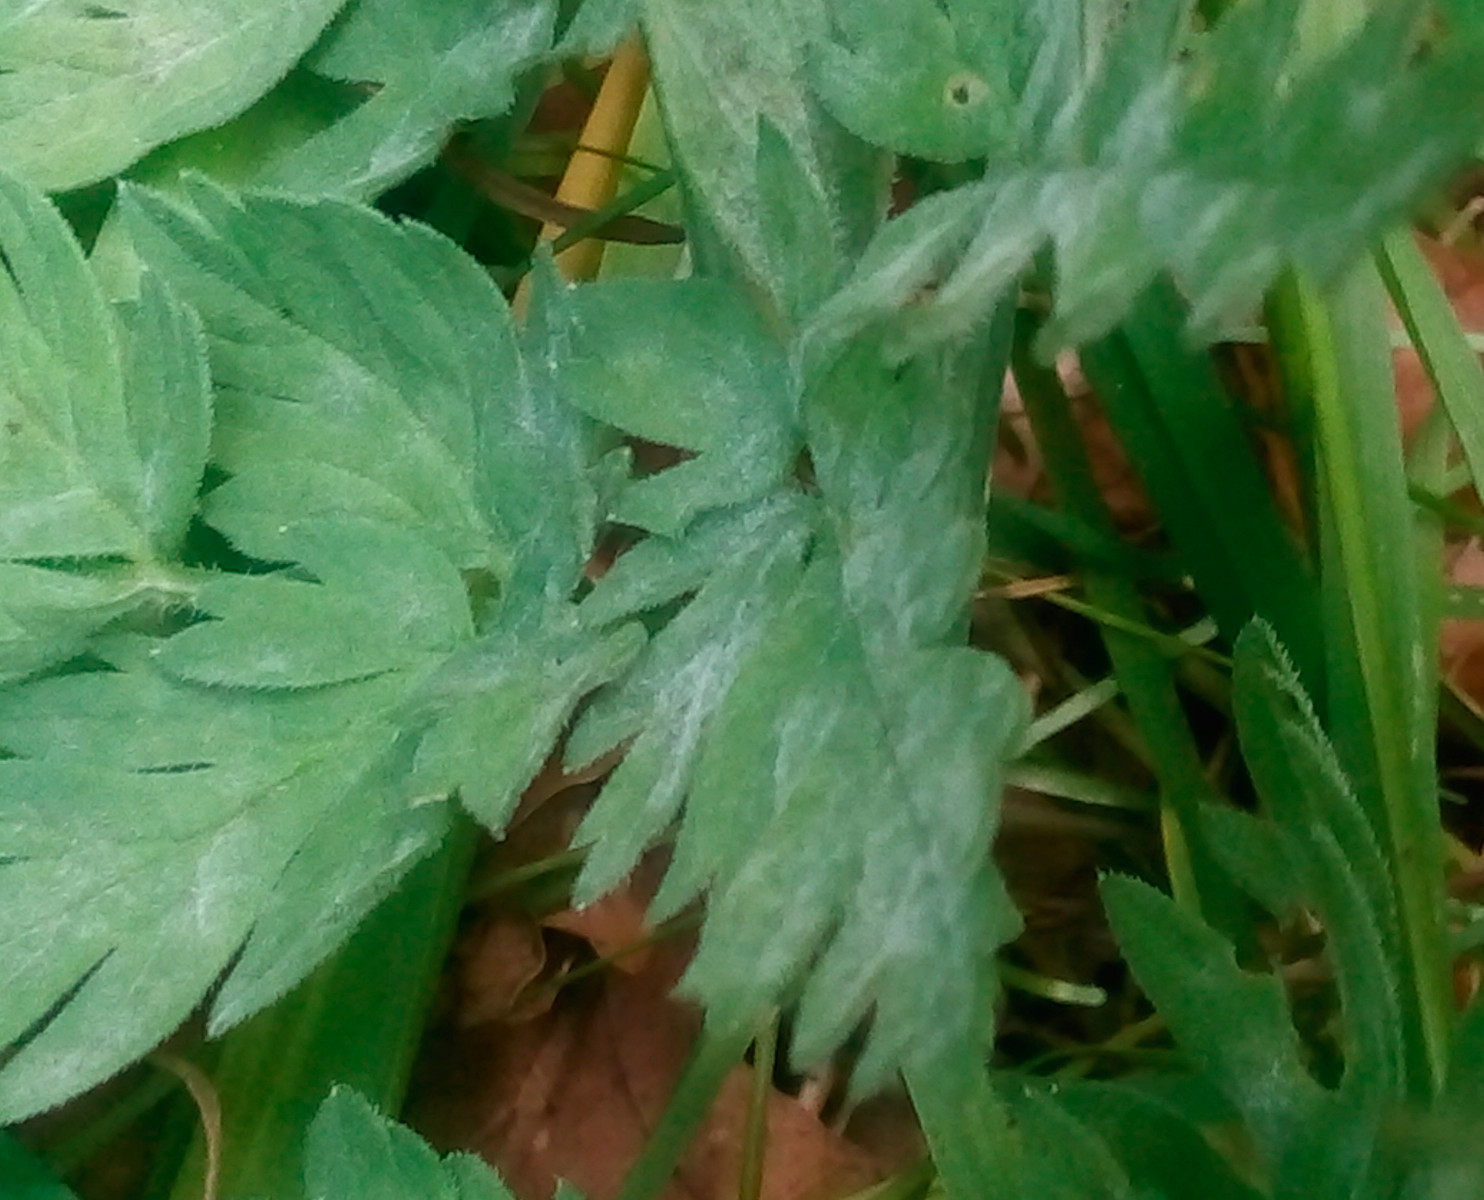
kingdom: Fungi
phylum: Ascomycota
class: Leotiomycetes
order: Helotiales
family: Erysiphaceae
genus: Erysiphe
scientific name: Erysiphe heraclei
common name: skærmplante-meldug
